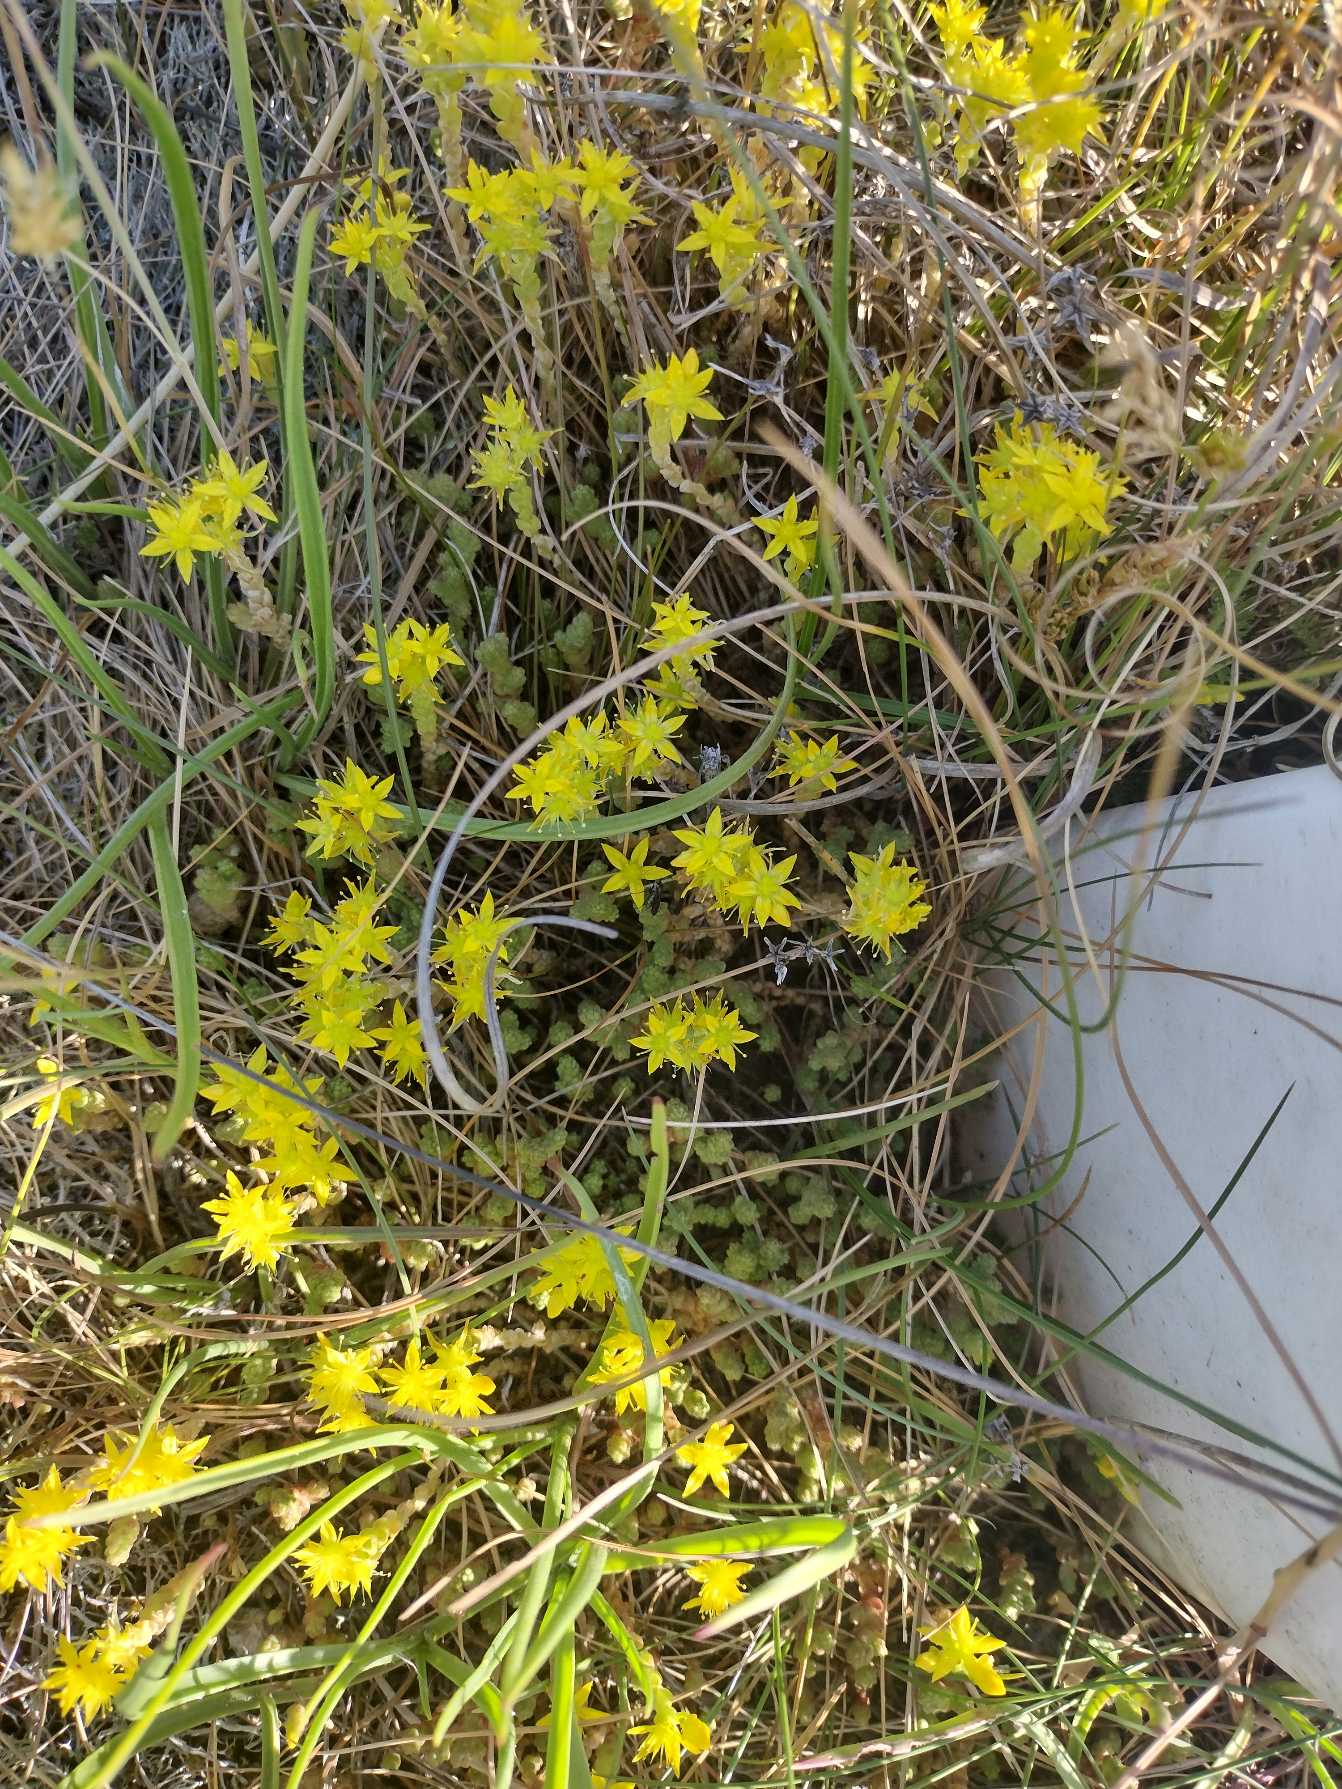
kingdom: Plantae
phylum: Tracheophyta
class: Magnoliopsida
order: Saxifragales
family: Crassulaceae
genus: Sedum
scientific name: Sedum acre
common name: Bidende stenurt
